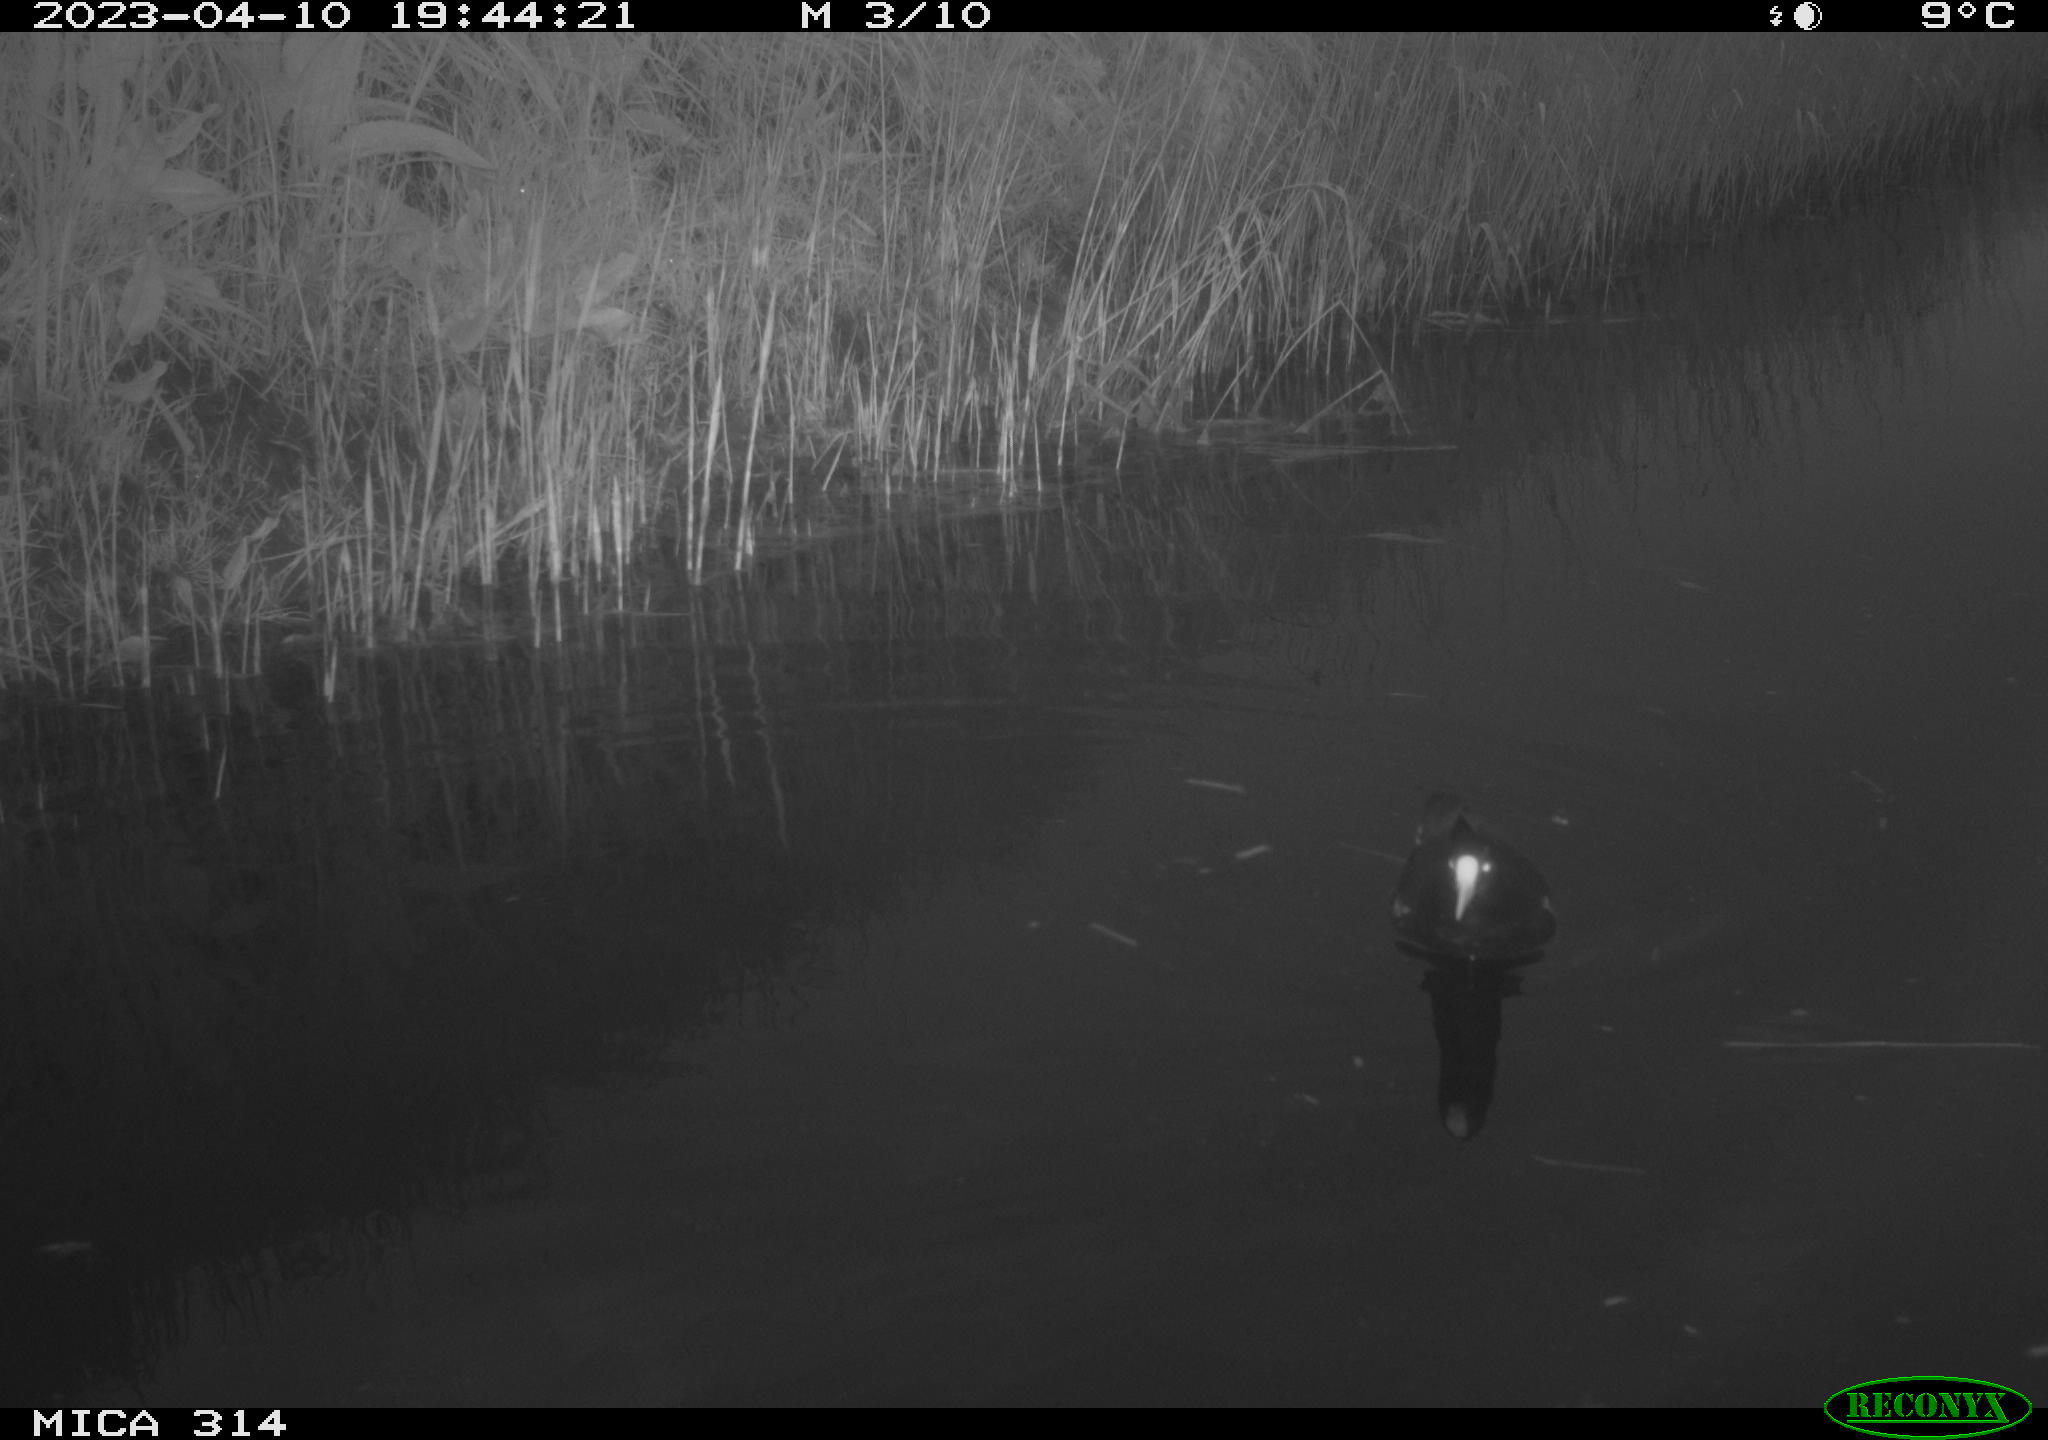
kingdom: Animalia
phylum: Chordata
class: Aves
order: Gruiformes
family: Rallidae
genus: Gallinula
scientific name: Gallinula chloropus
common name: Common moorhen
